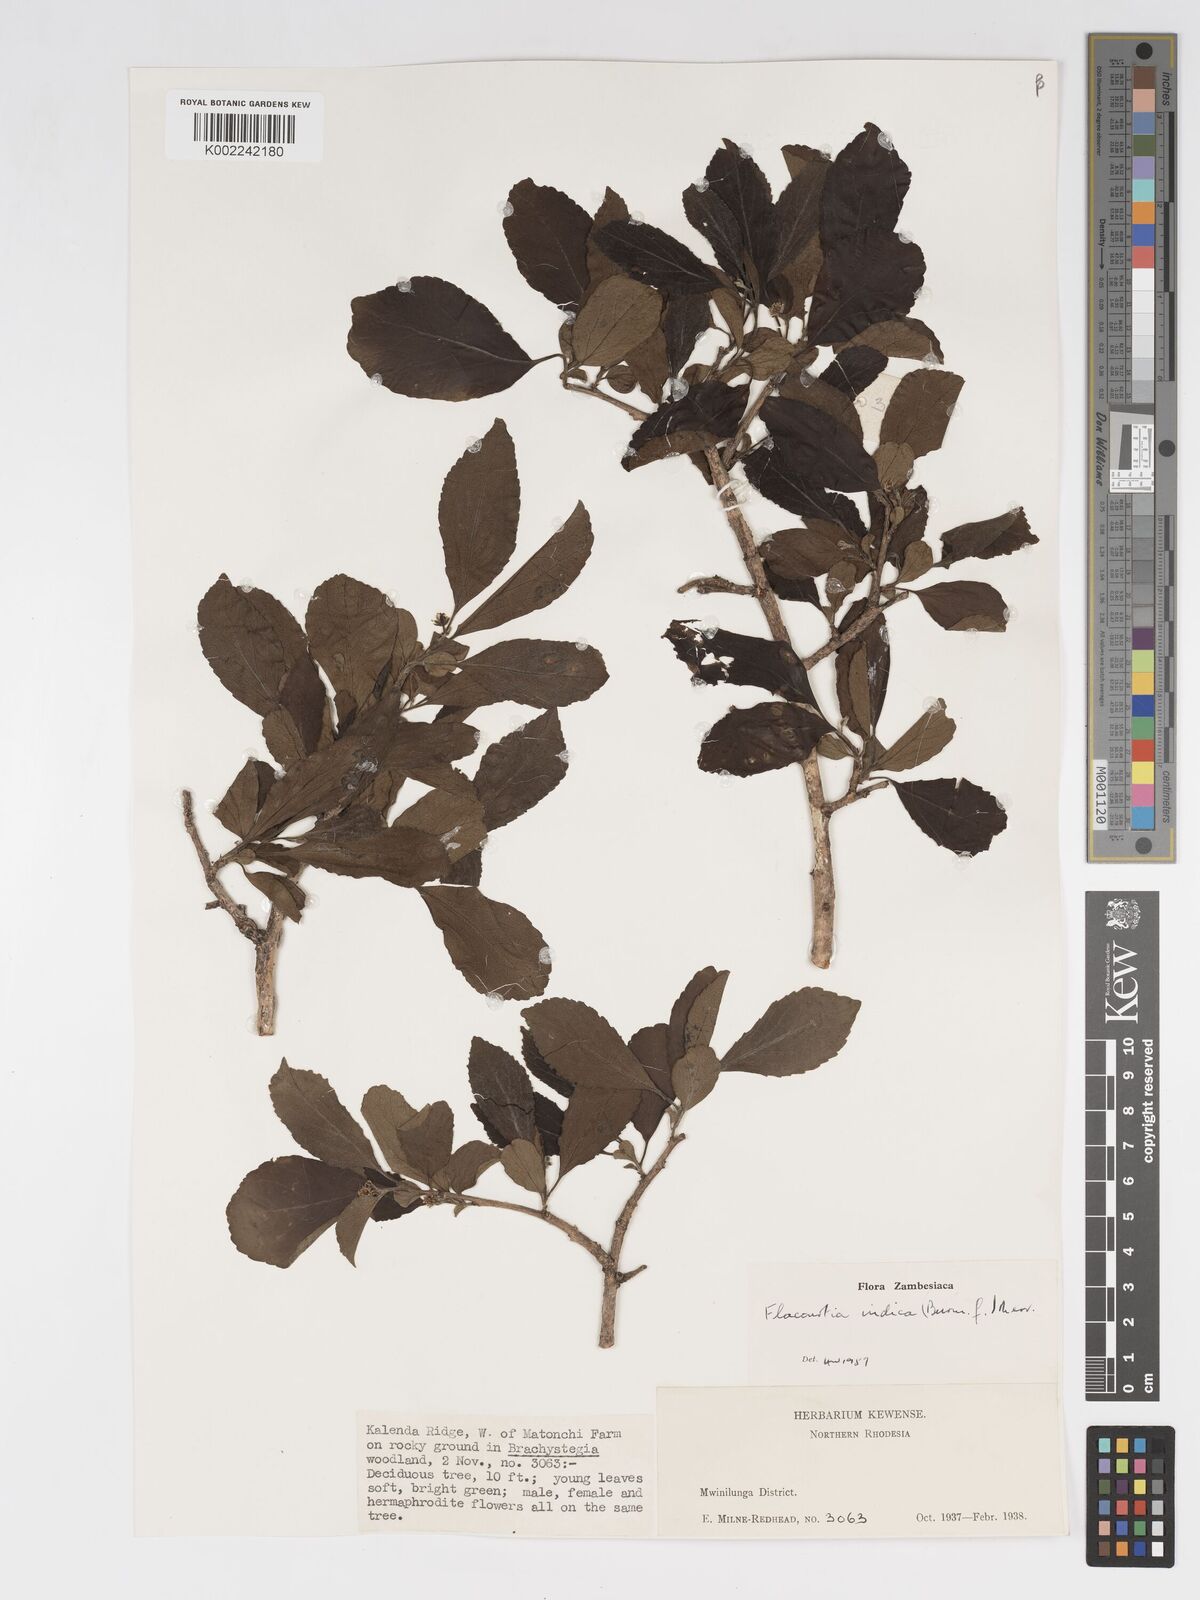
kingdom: Plantae
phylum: Tracheophyta
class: Magnoliopsida
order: Malpighiales
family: Salicaceae
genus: Flacourtia
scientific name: Flacourtia indica
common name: Governor's plum
